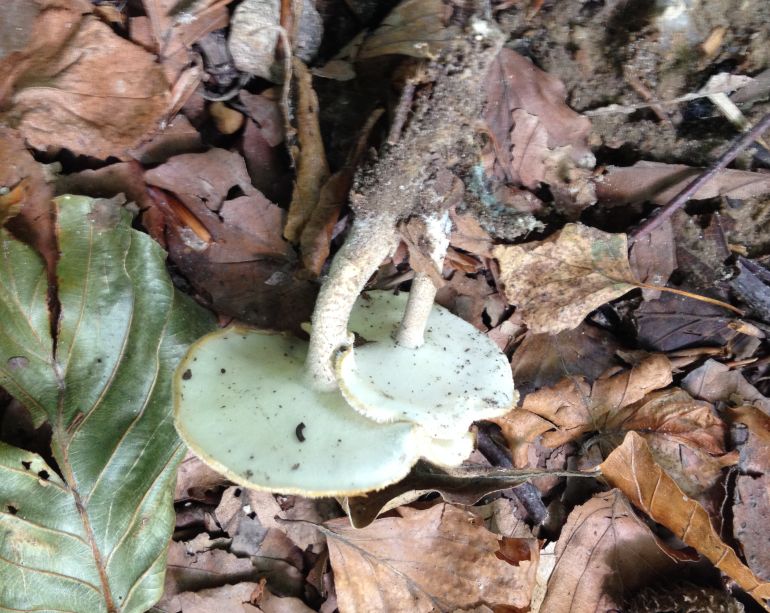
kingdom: Fungi
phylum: Basidiomycota
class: Agaricomycetes
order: Polyporales
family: Polyporaceae
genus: Lentinus
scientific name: Lentinus substrictus
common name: forårs-stilkporesvamp
